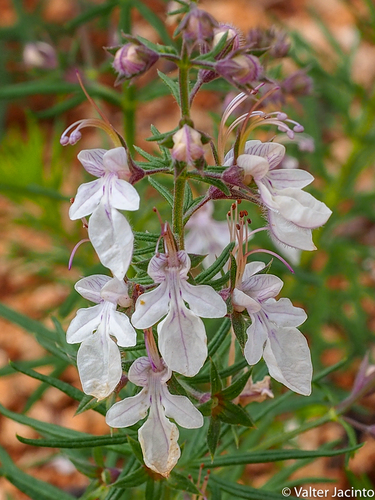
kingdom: Plantae
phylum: Tracheophyta
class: Magnoliopsida
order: Lamiales
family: Lamiaceae
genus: Teucrium
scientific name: Teucrium pseudochamaepitys
